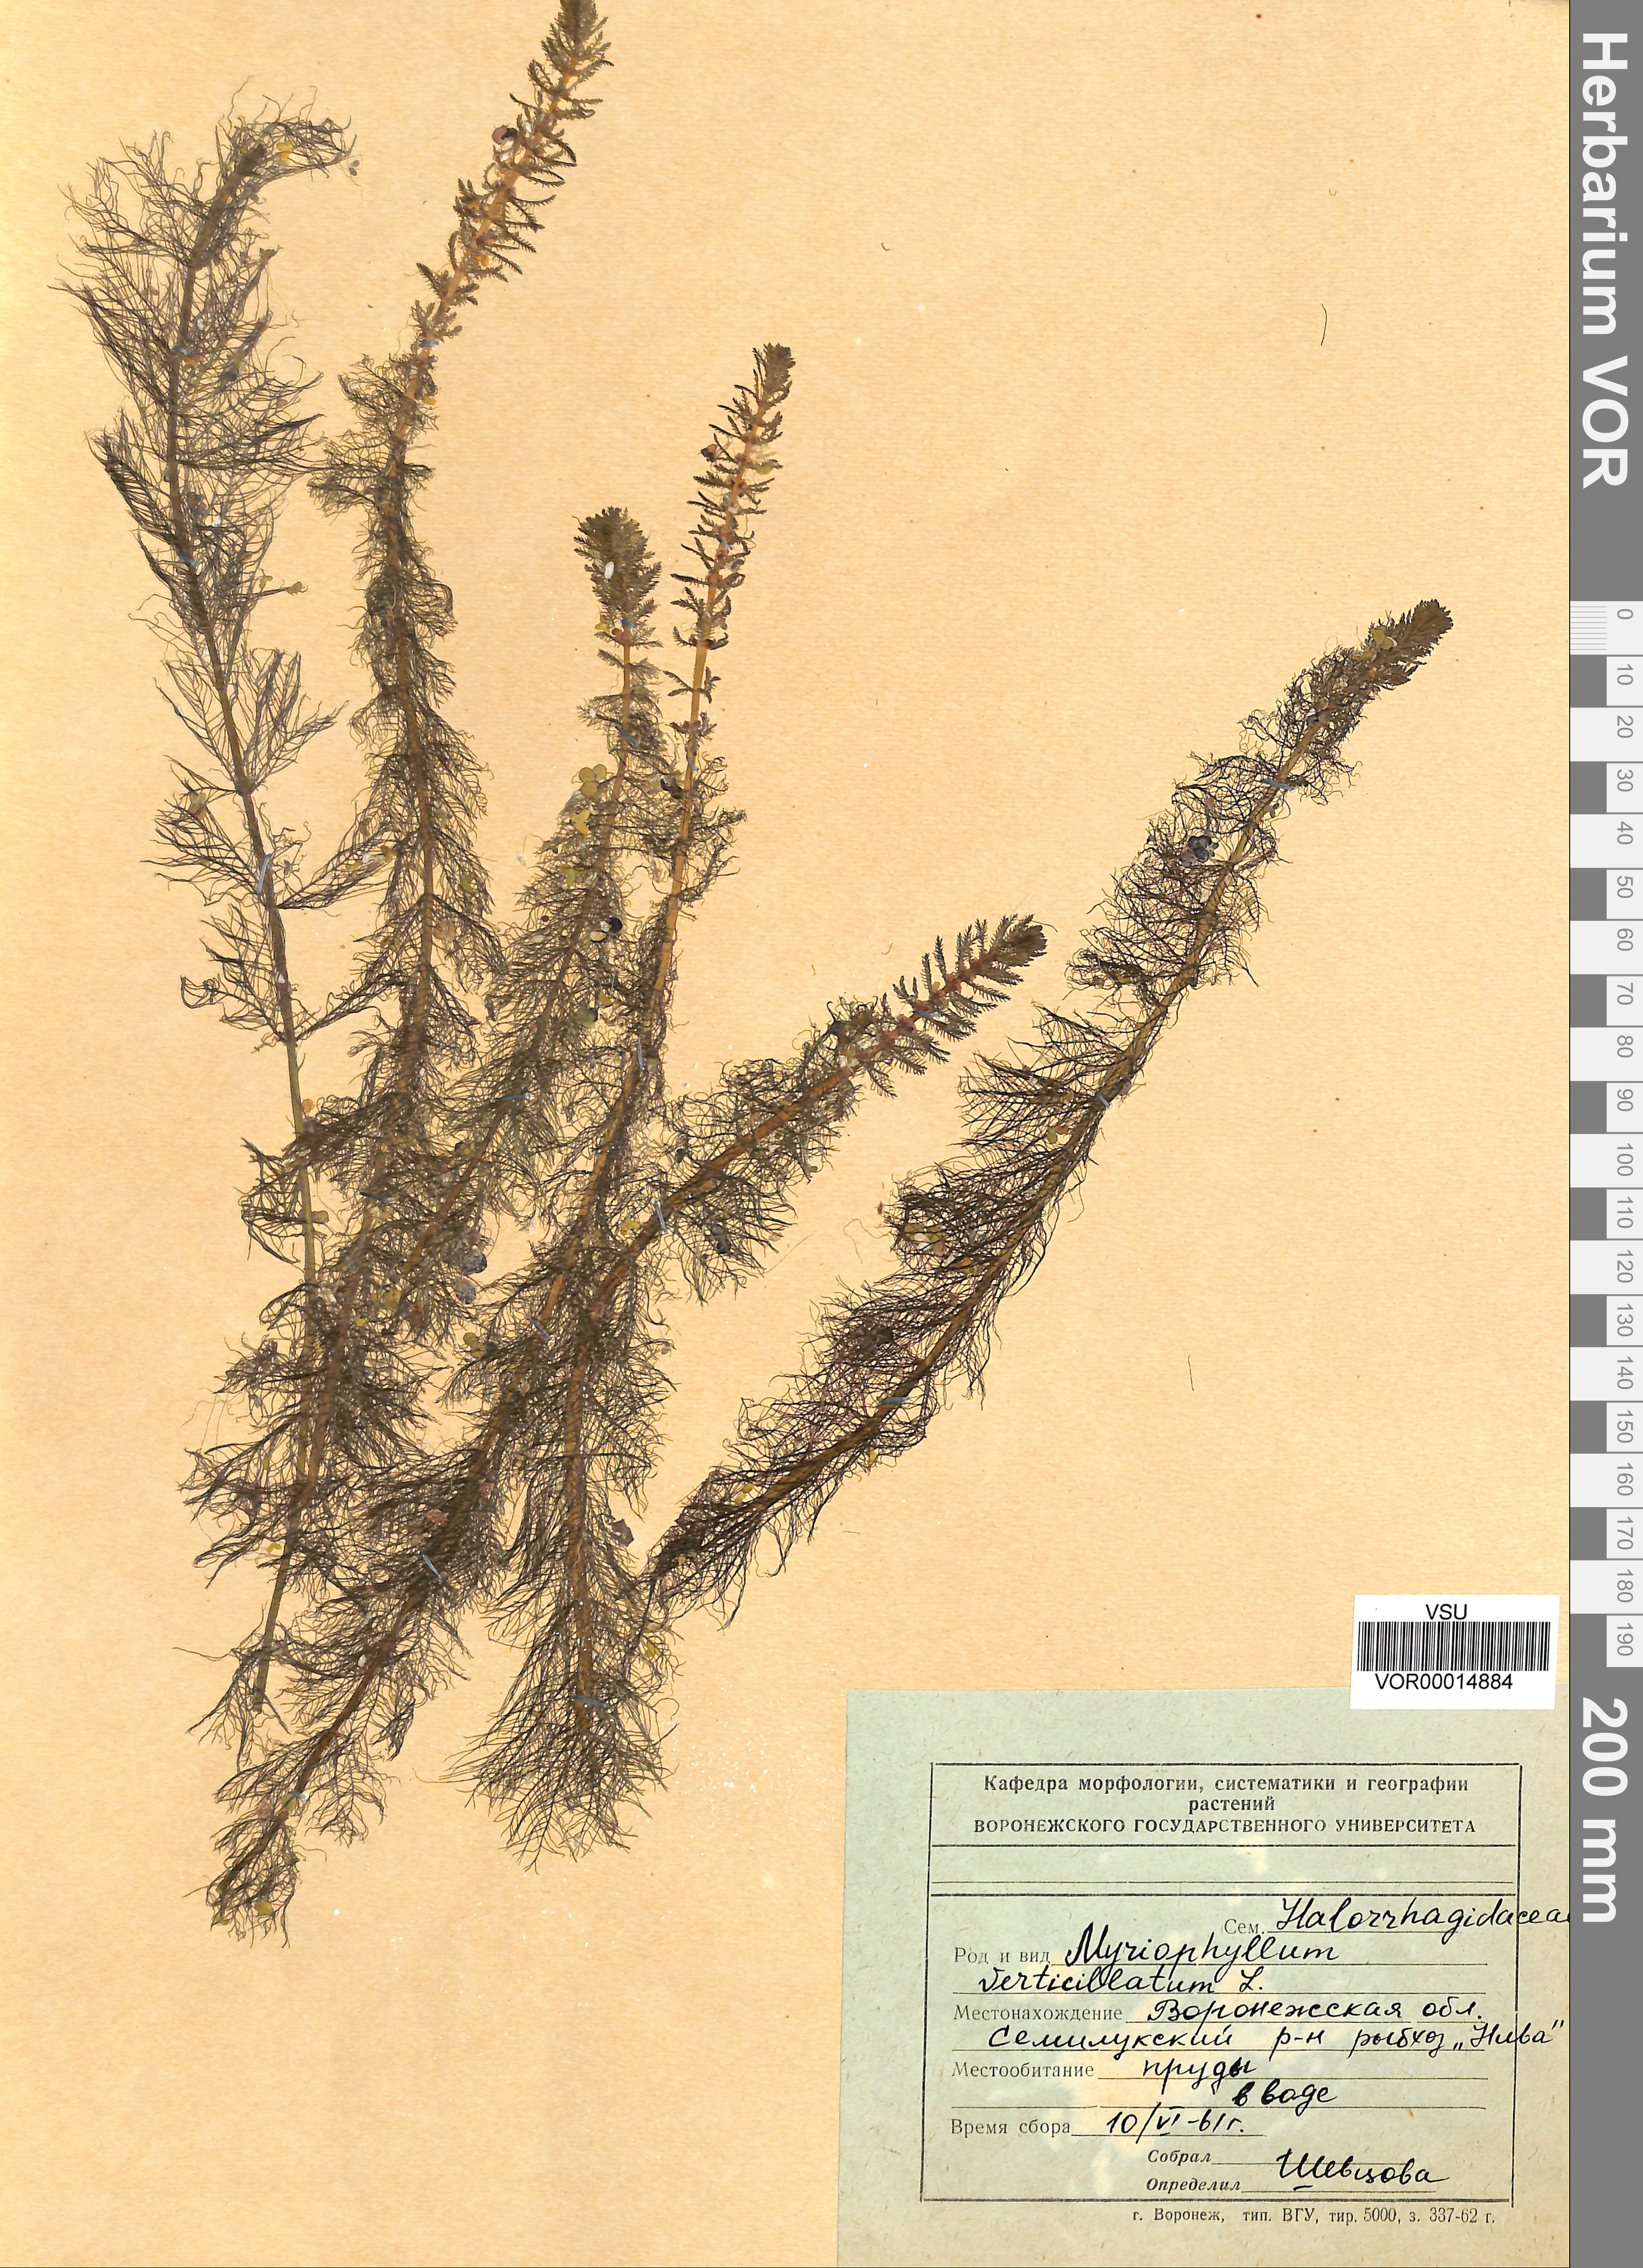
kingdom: Plantae
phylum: Tracheophyta
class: Magnoliopsida
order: Saxifragales
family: Haloragaceae
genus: Myriophyllum
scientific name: Myriophyllum verticillatum
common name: Whorled water-milfoil
